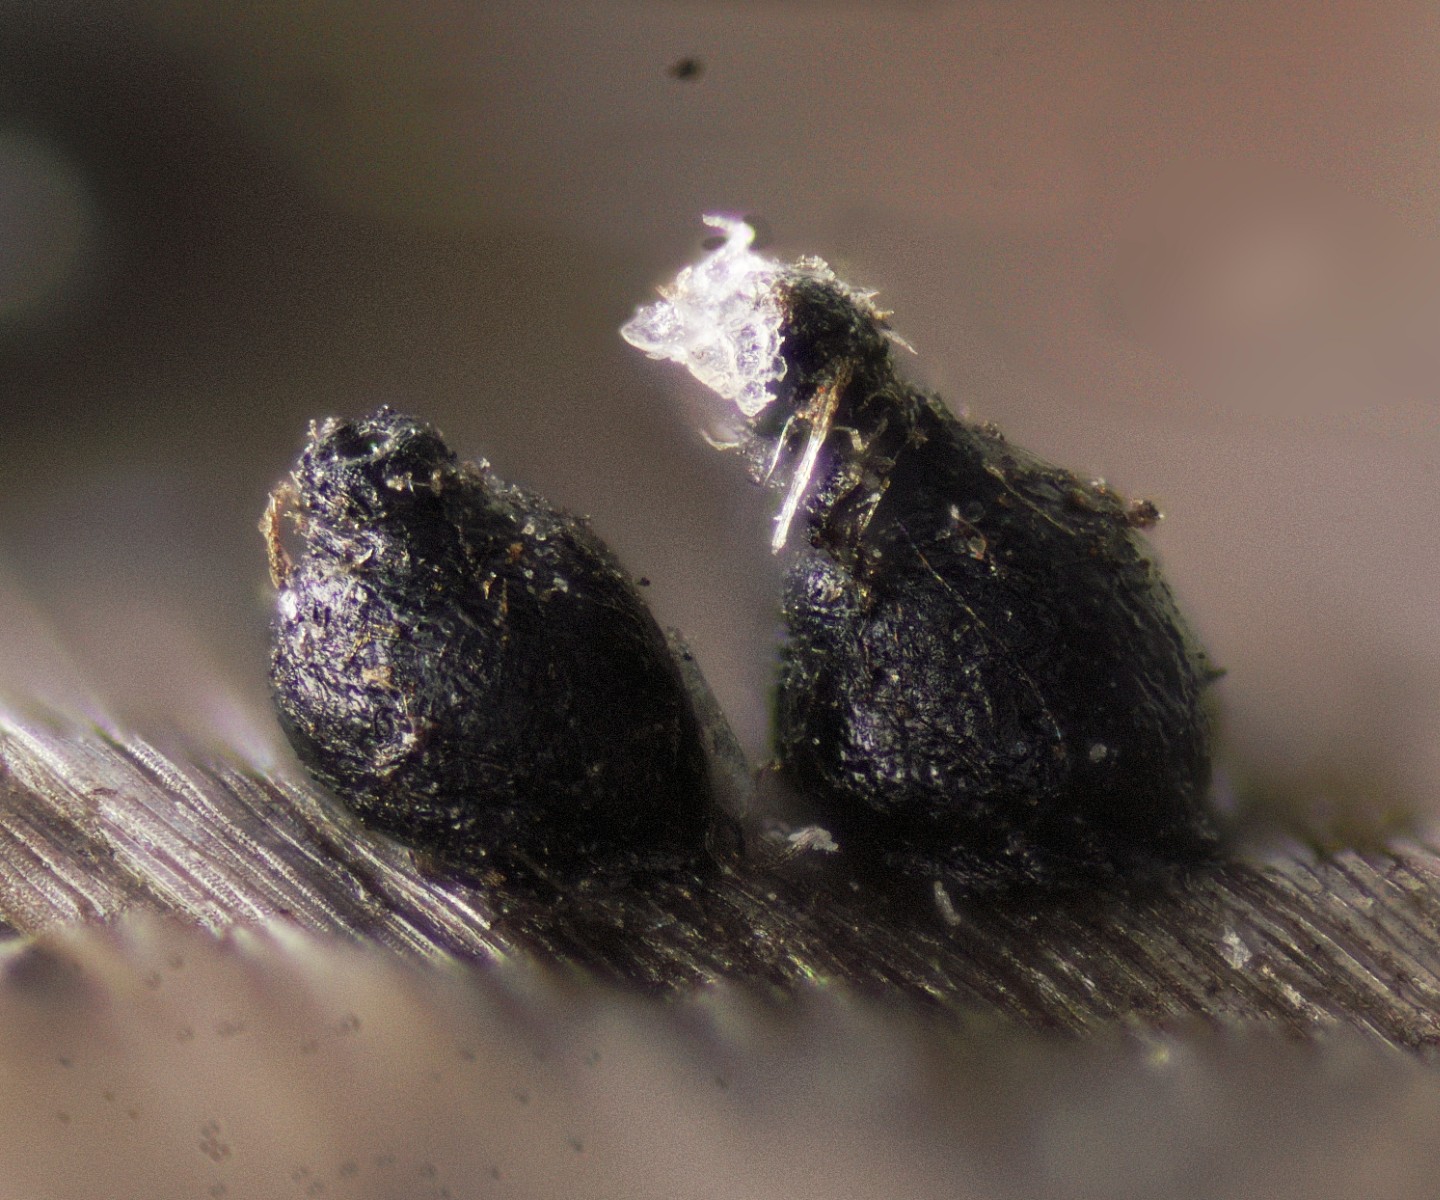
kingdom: Fungi
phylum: Ascomycota
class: Dothideomycetes
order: Pleosporales
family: Leptosphaeriaceae
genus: Leptosphaeria
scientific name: Leptosphaeria acuta
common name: spids kulkegle
